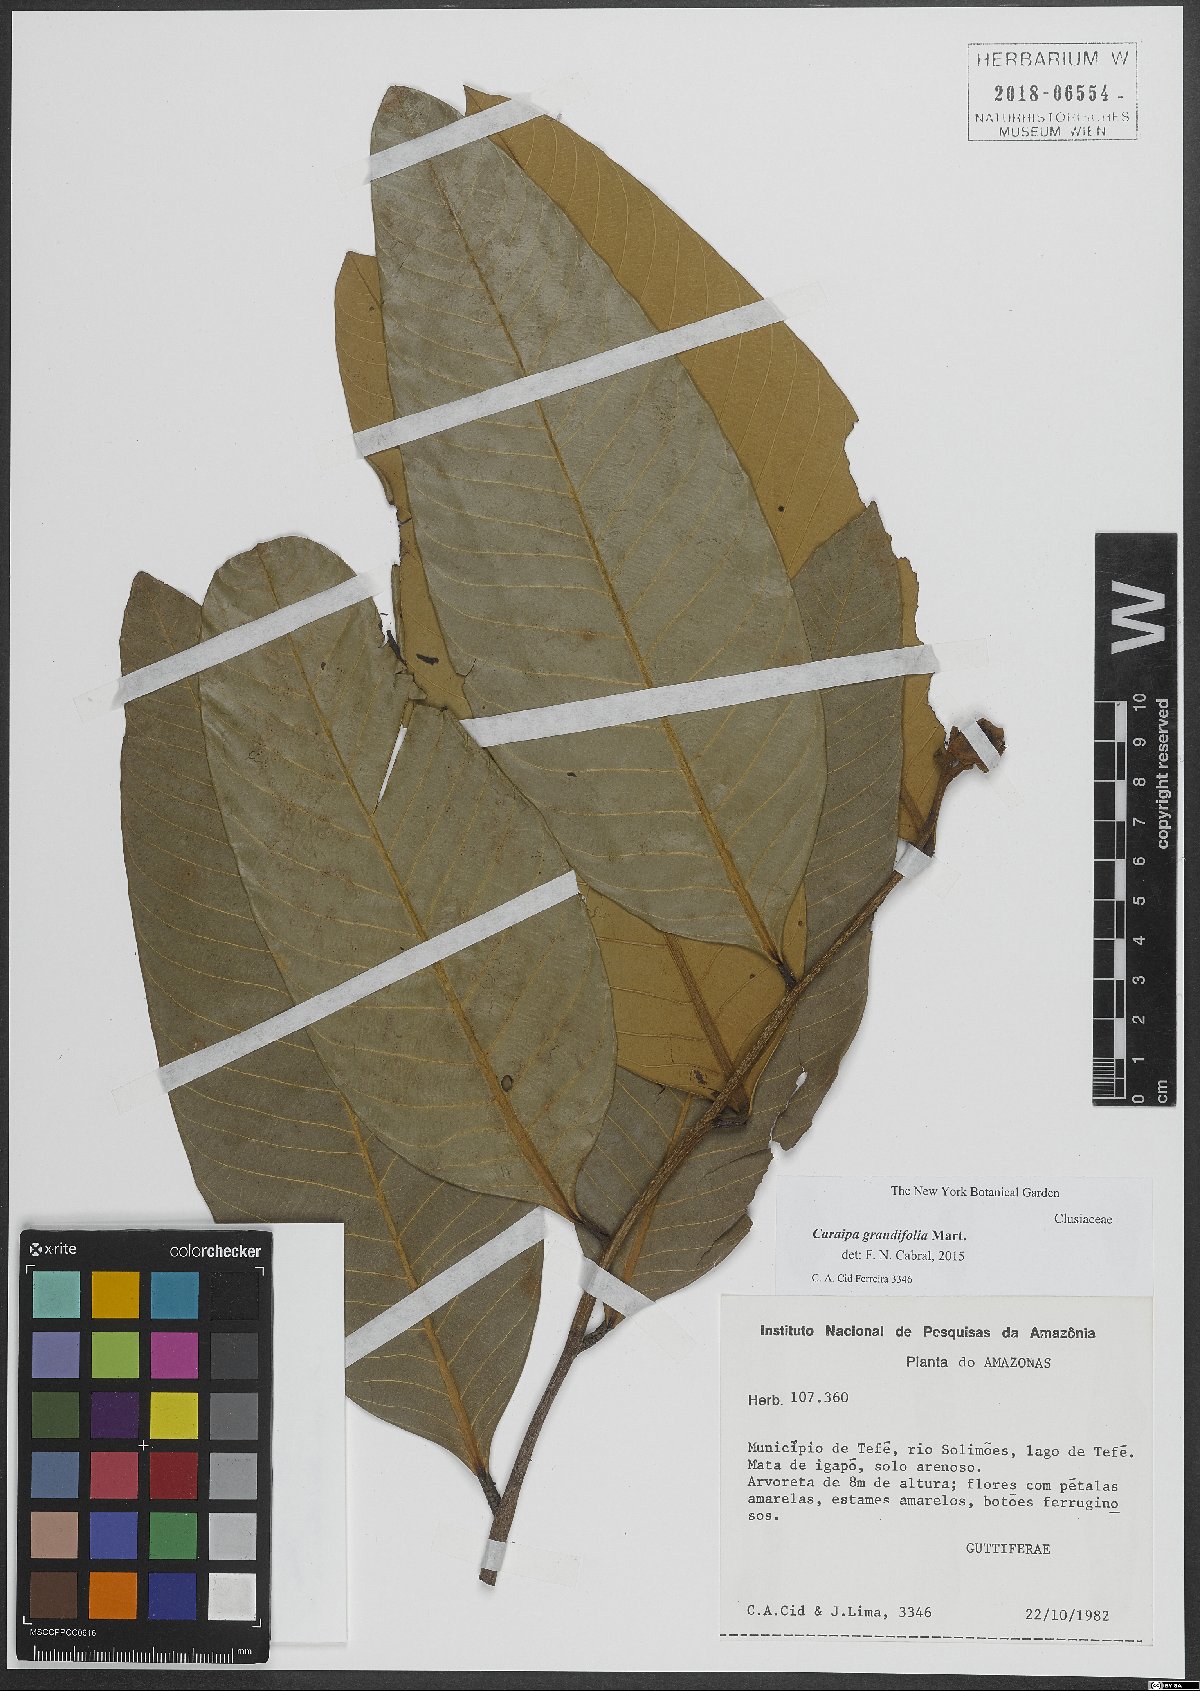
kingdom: Plantae
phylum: Tracheophyta
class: Magnoliopsida
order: Malpighiales
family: Calophyllaceae
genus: Caraipa
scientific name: Caraipa grandifolia
